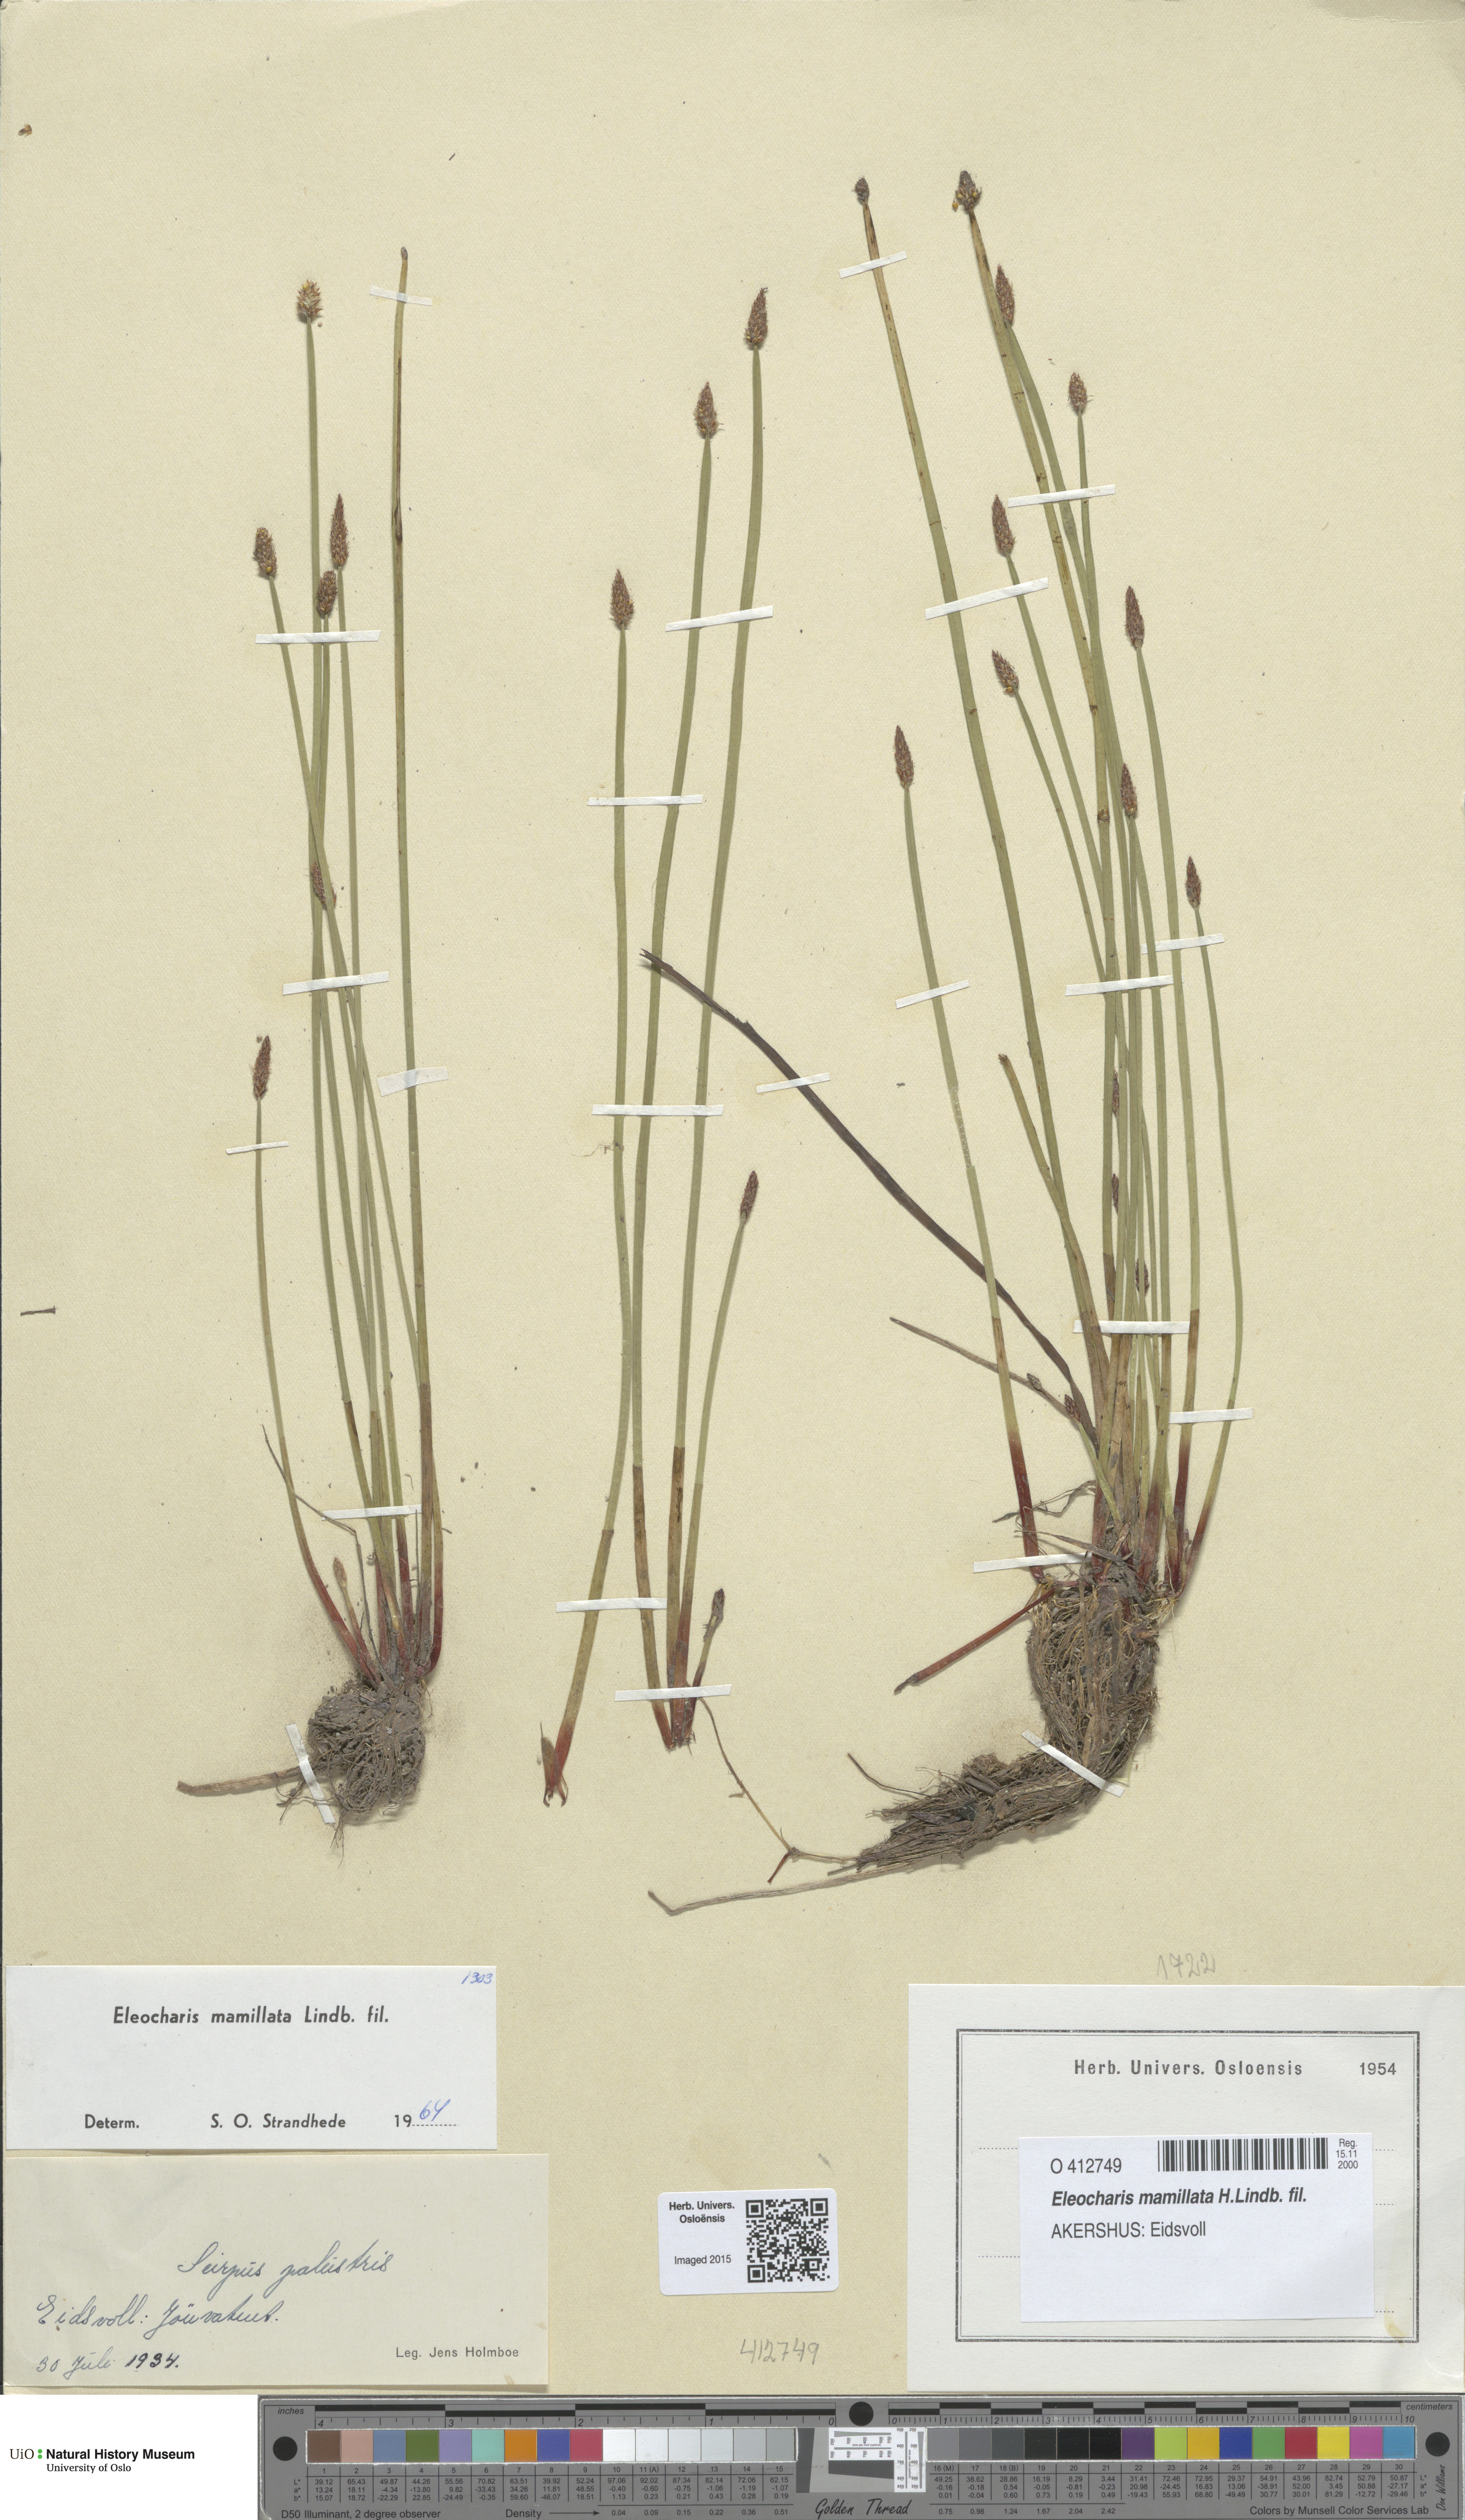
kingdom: Plantae
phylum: Tracheophyta
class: Liliopsida
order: Poales
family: Cyperaceae
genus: Eleocharis
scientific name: Eleocharis mamillata
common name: Northern spike-rush
